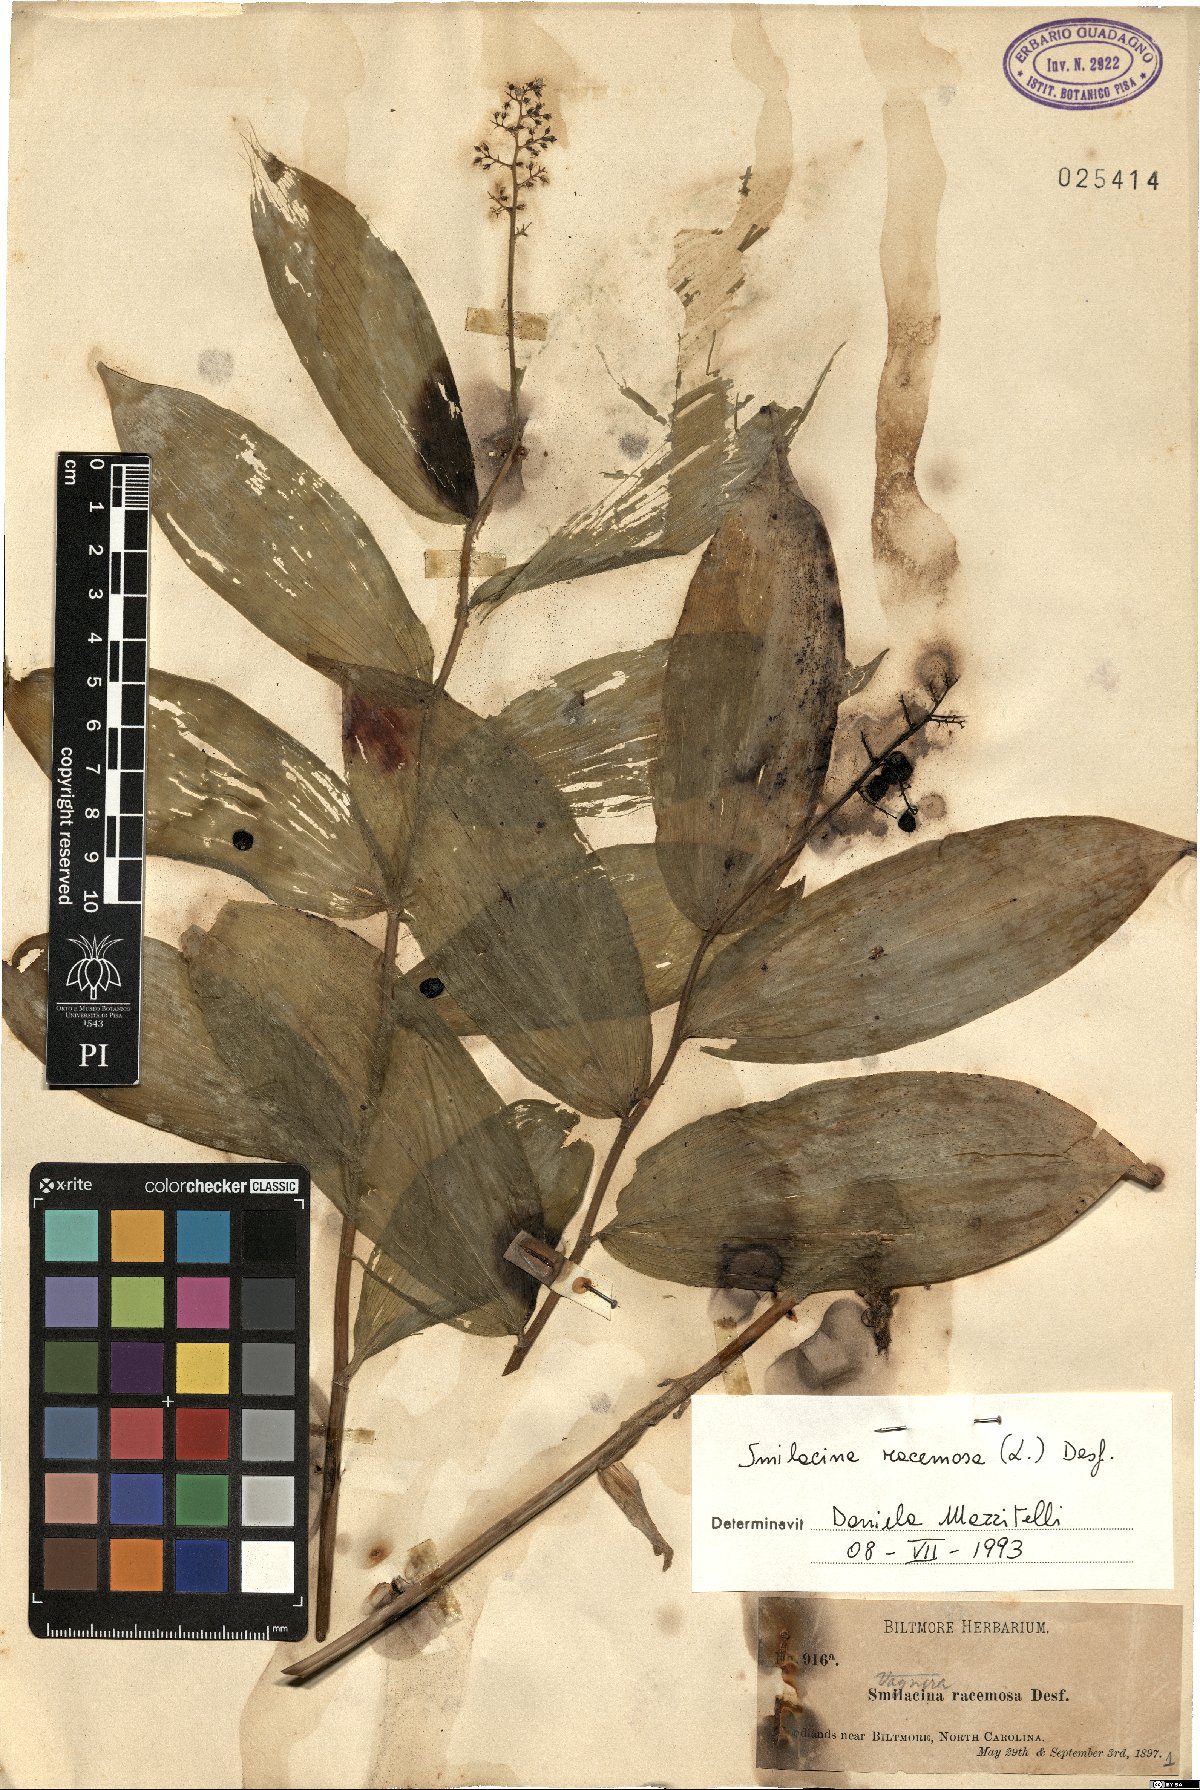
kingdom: Plantae
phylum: Tracheophyta
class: Liliopsida
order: Asparagales
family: Asparagaceae
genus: Maianthemum
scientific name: Maianthemum racemosum
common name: False spikenard
